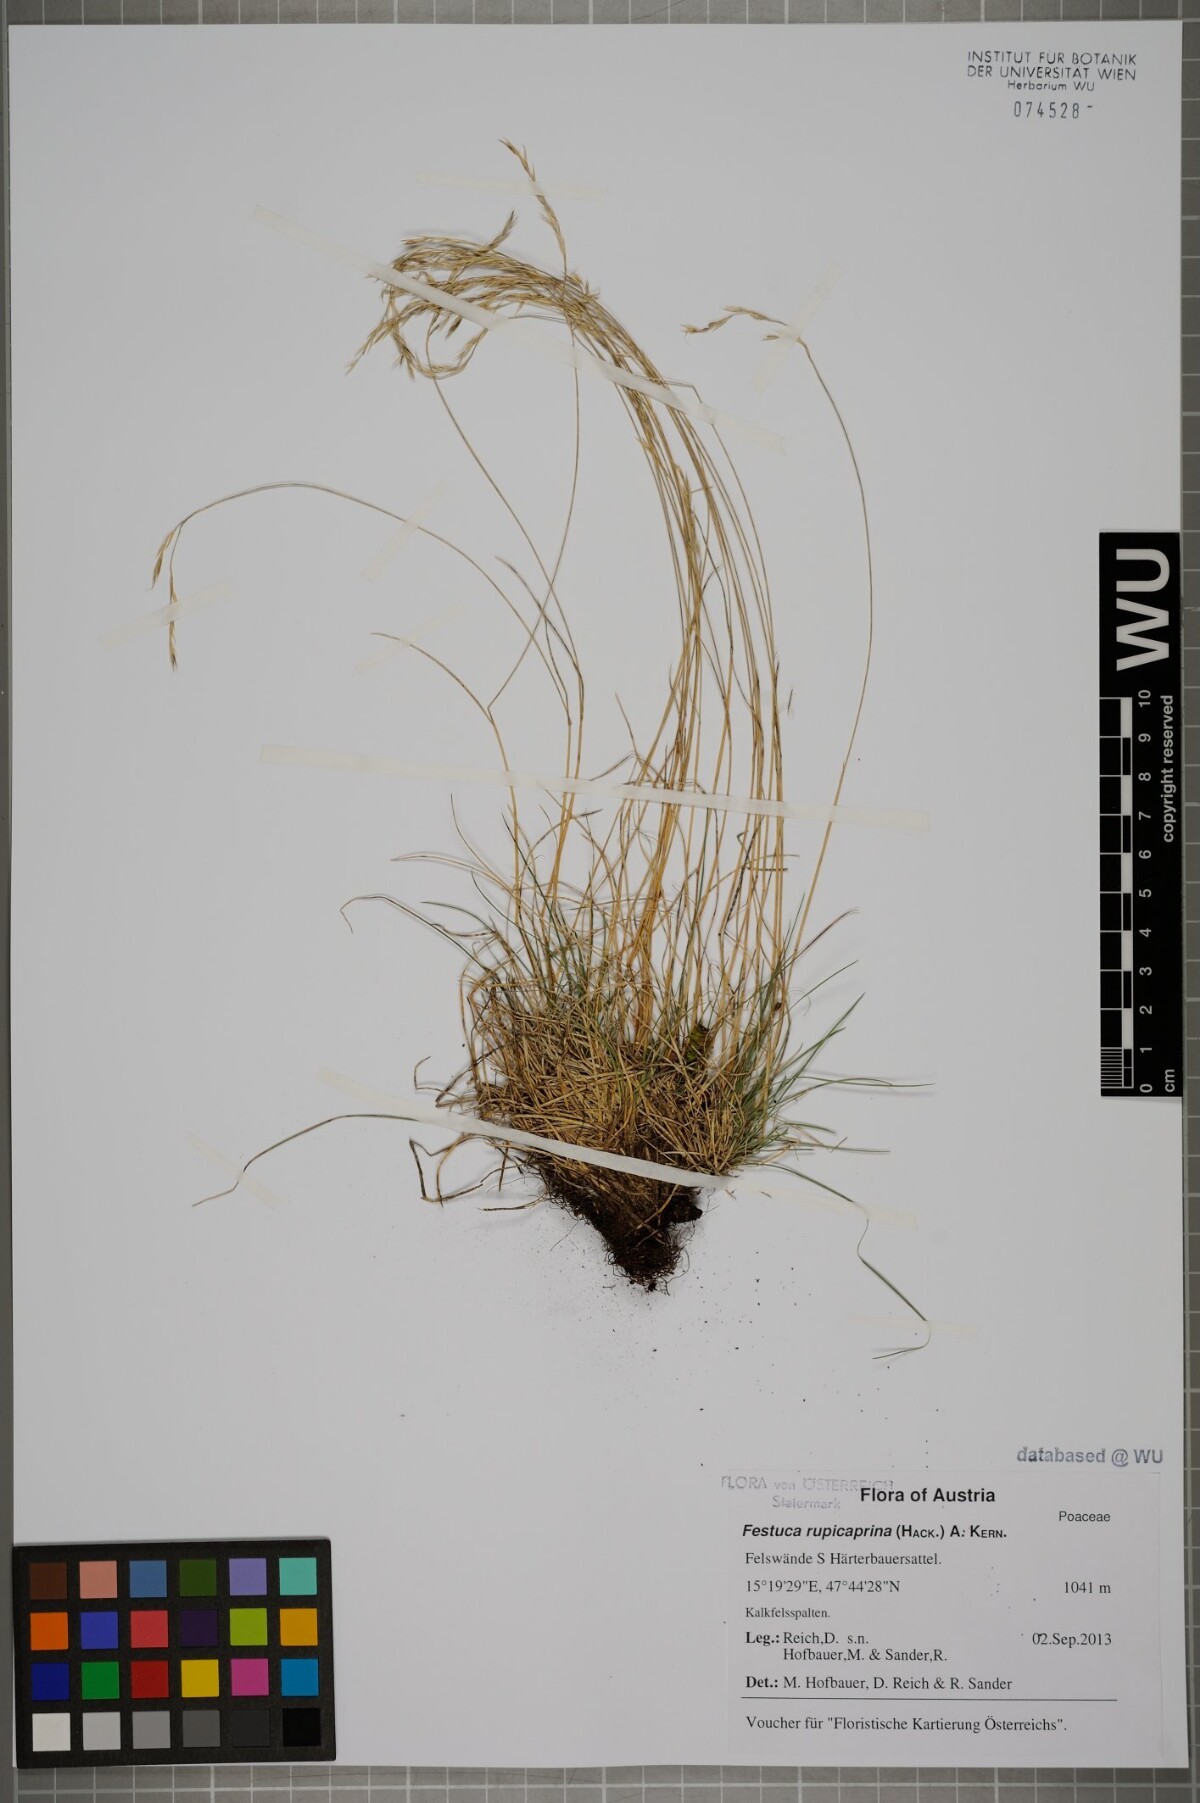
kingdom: Plantae
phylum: Tracheophyta
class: Liliopsida
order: Poales
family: Poaceae
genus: Festuca
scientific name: Festuca rupicaprina
